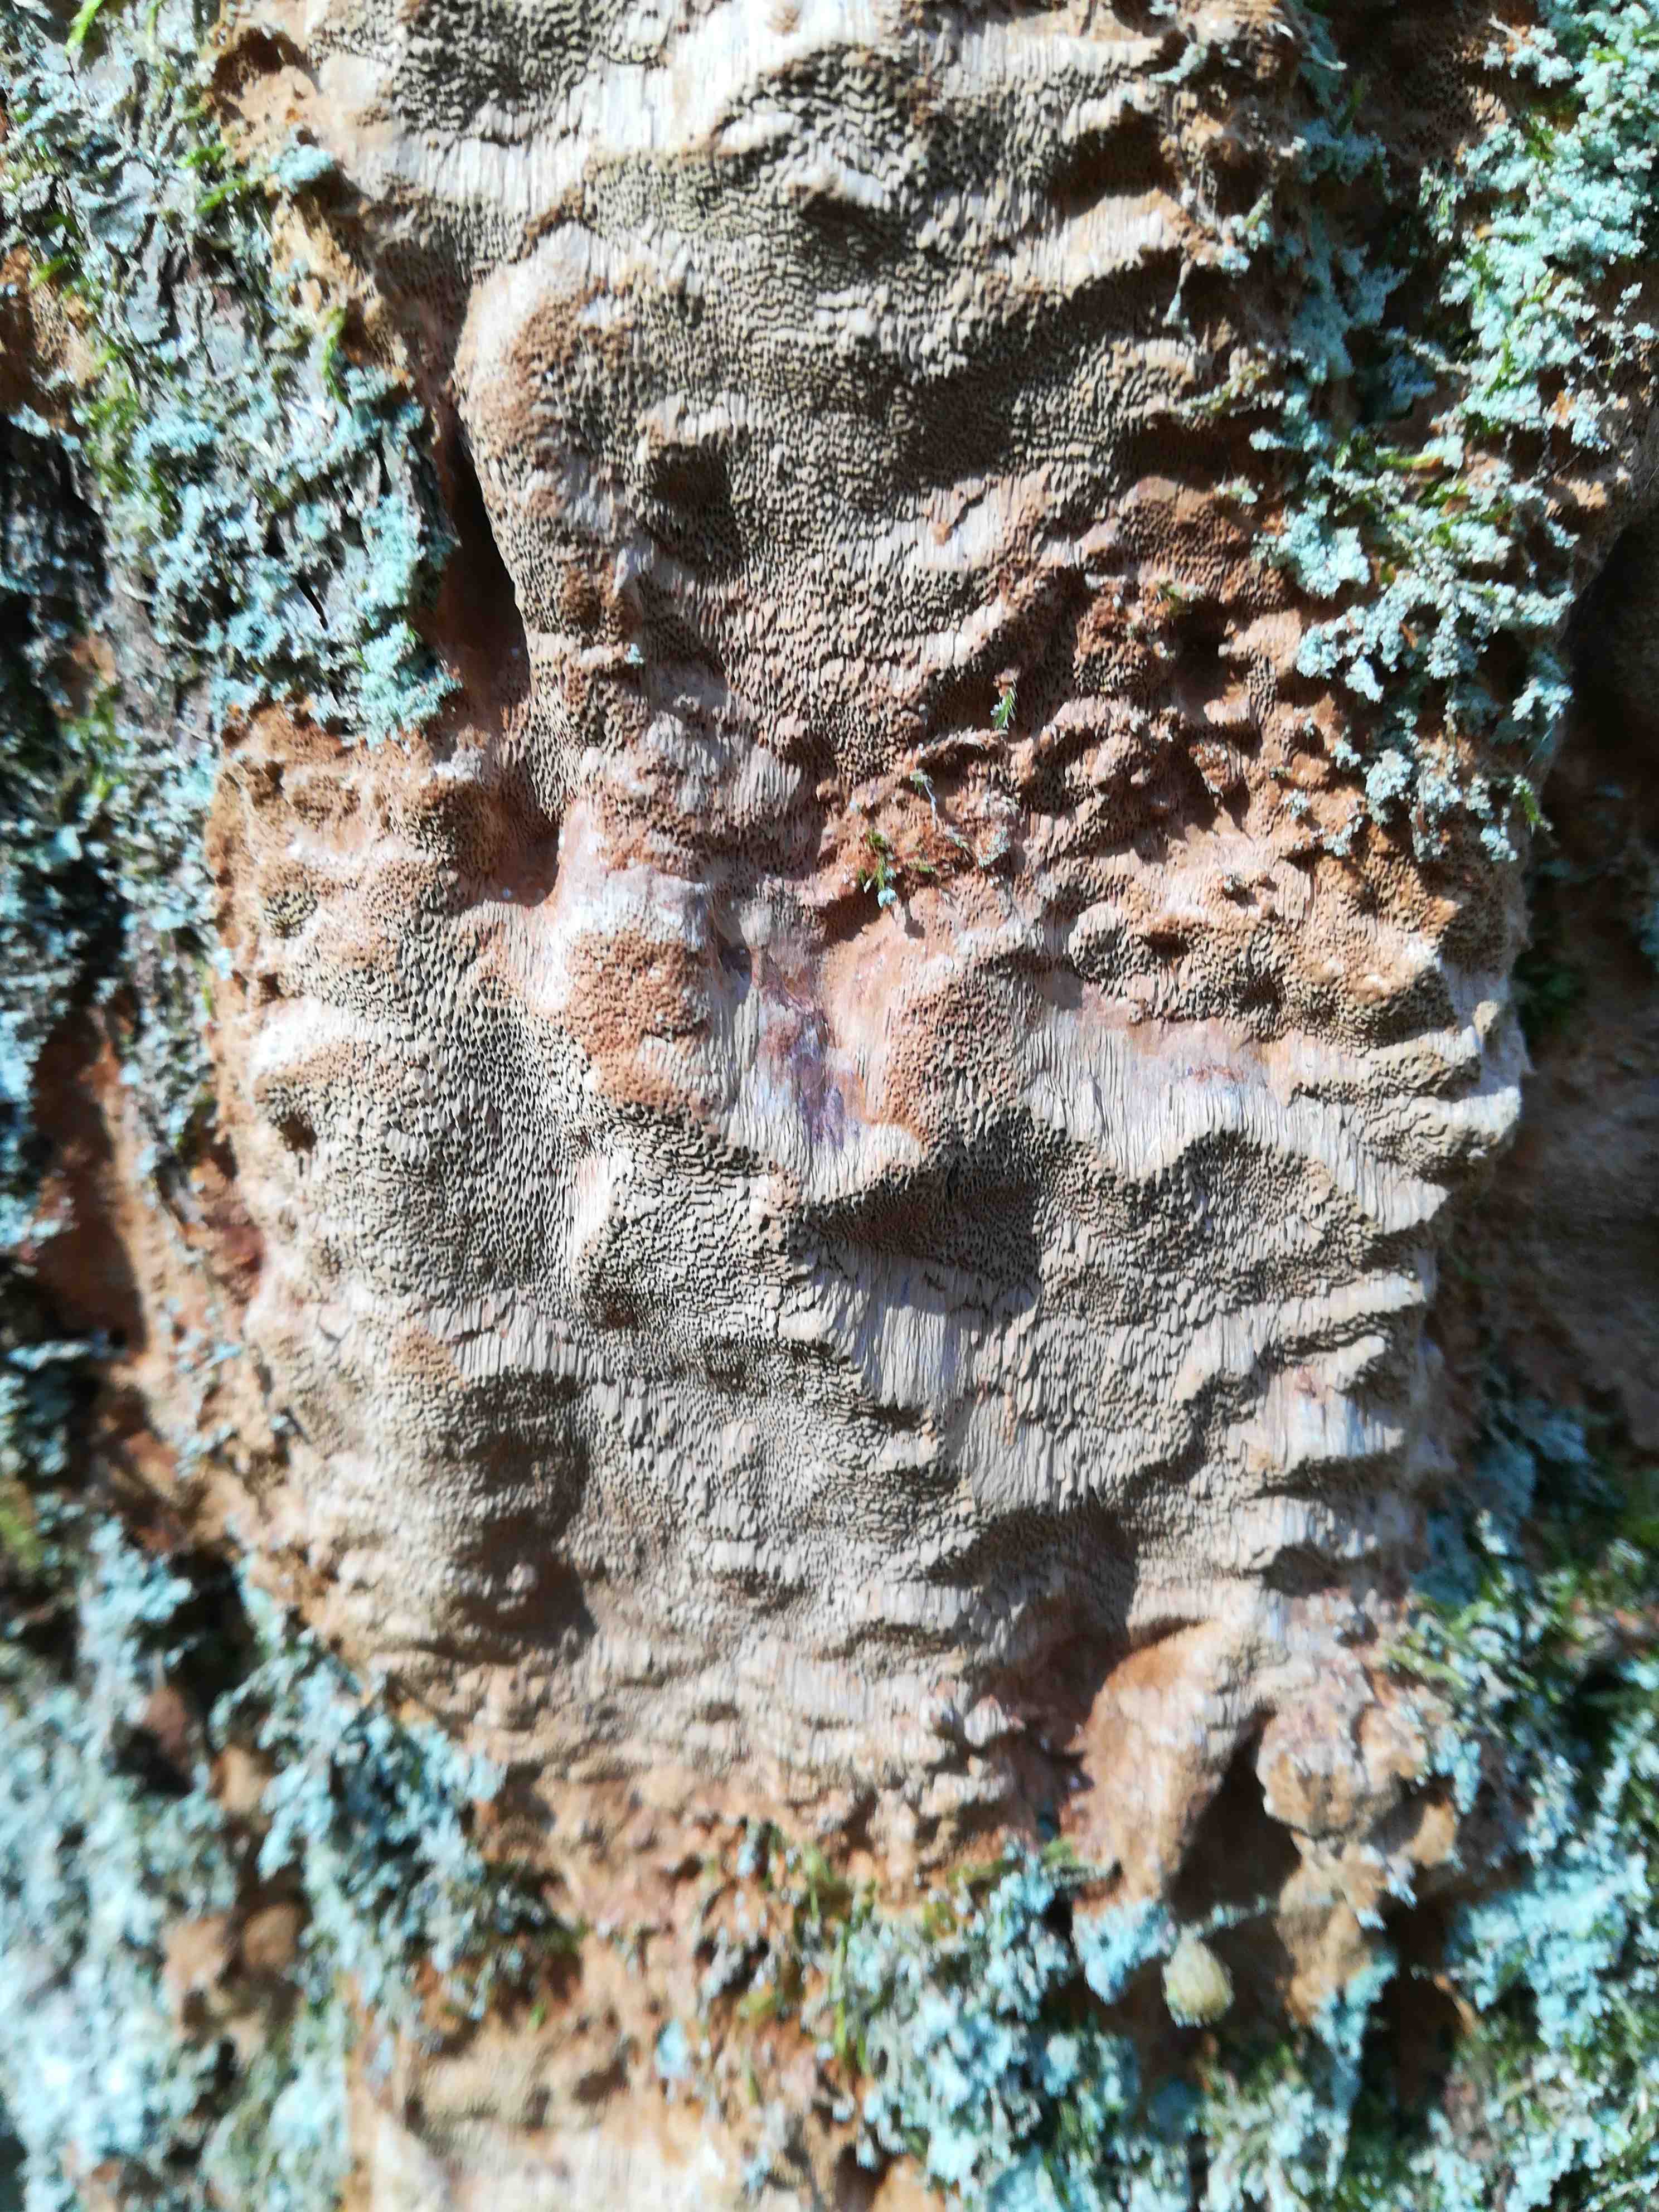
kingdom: Fungi
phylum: Basidiomycota
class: Agaricomycetes
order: Hymenochaetales
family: Hymenochaetaceae
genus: Fuscoporia
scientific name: Fuscoporia ferrea
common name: skorpe-ildporesvamp
